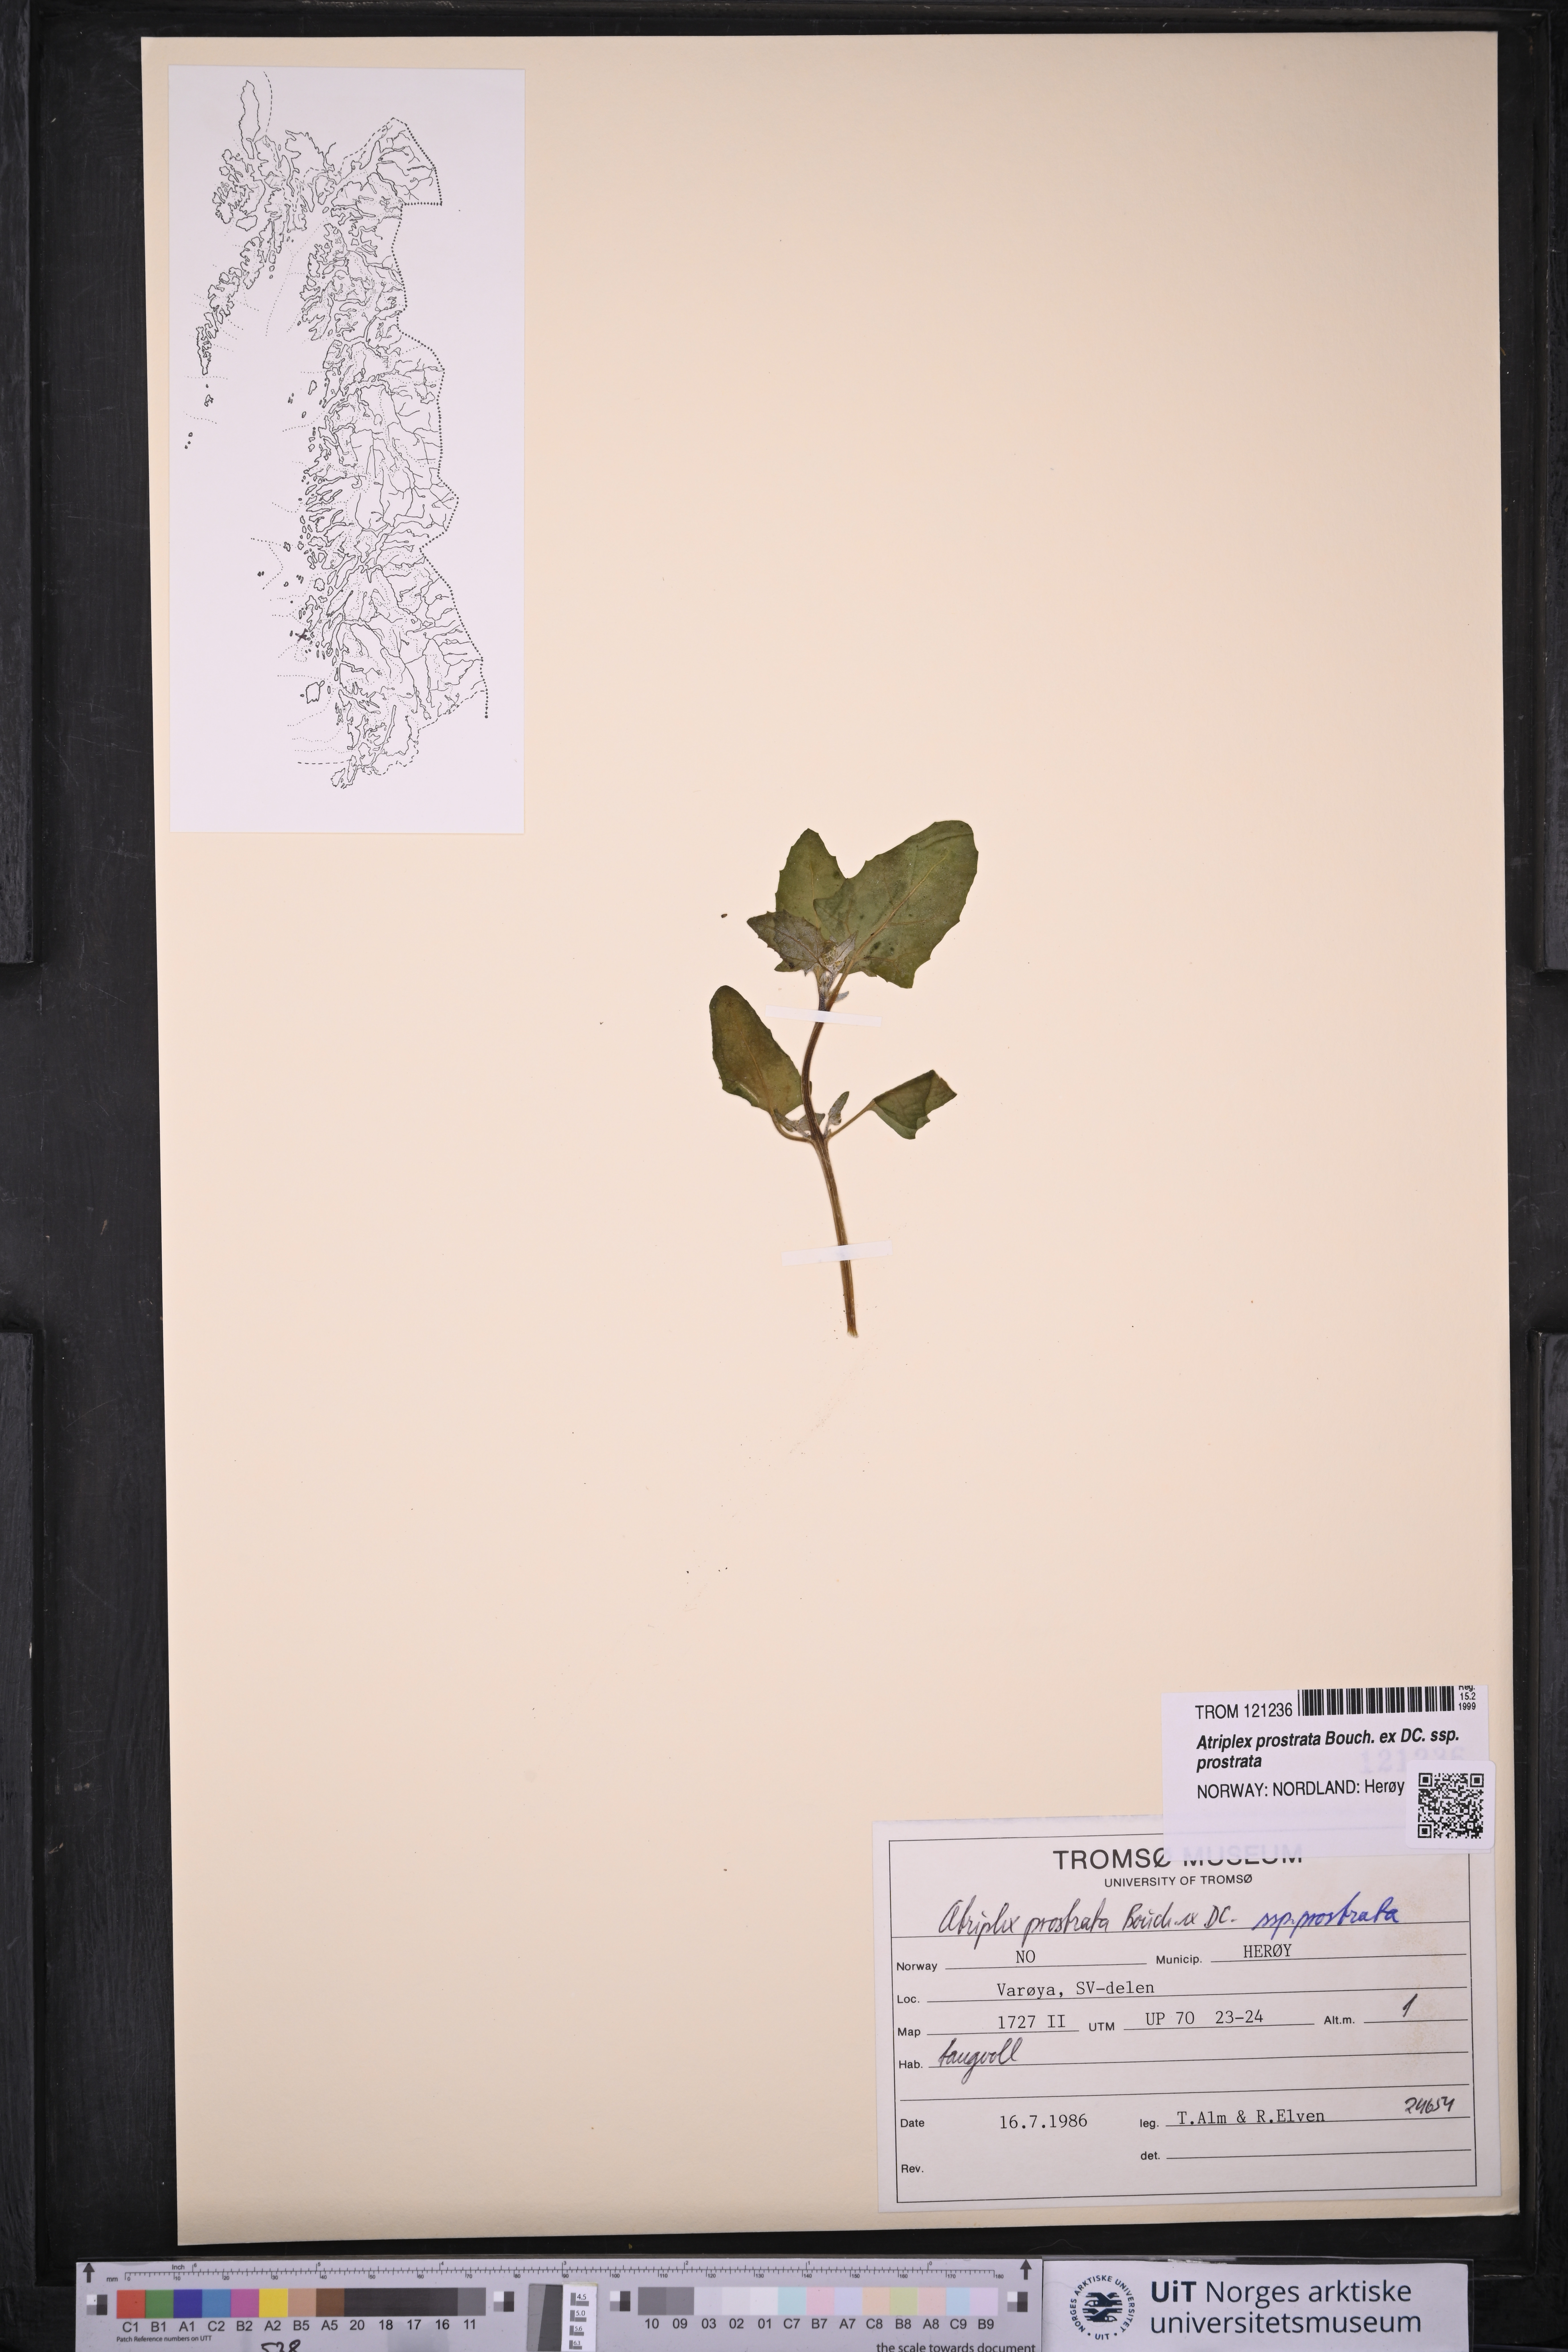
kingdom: Plantae
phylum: Tracheophyta
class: Magnoliopsida
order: Caryophyllales
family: Amaranthaceae
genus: Atriplex
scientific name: Atriplex prostrata
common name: Spear-leaved orache
